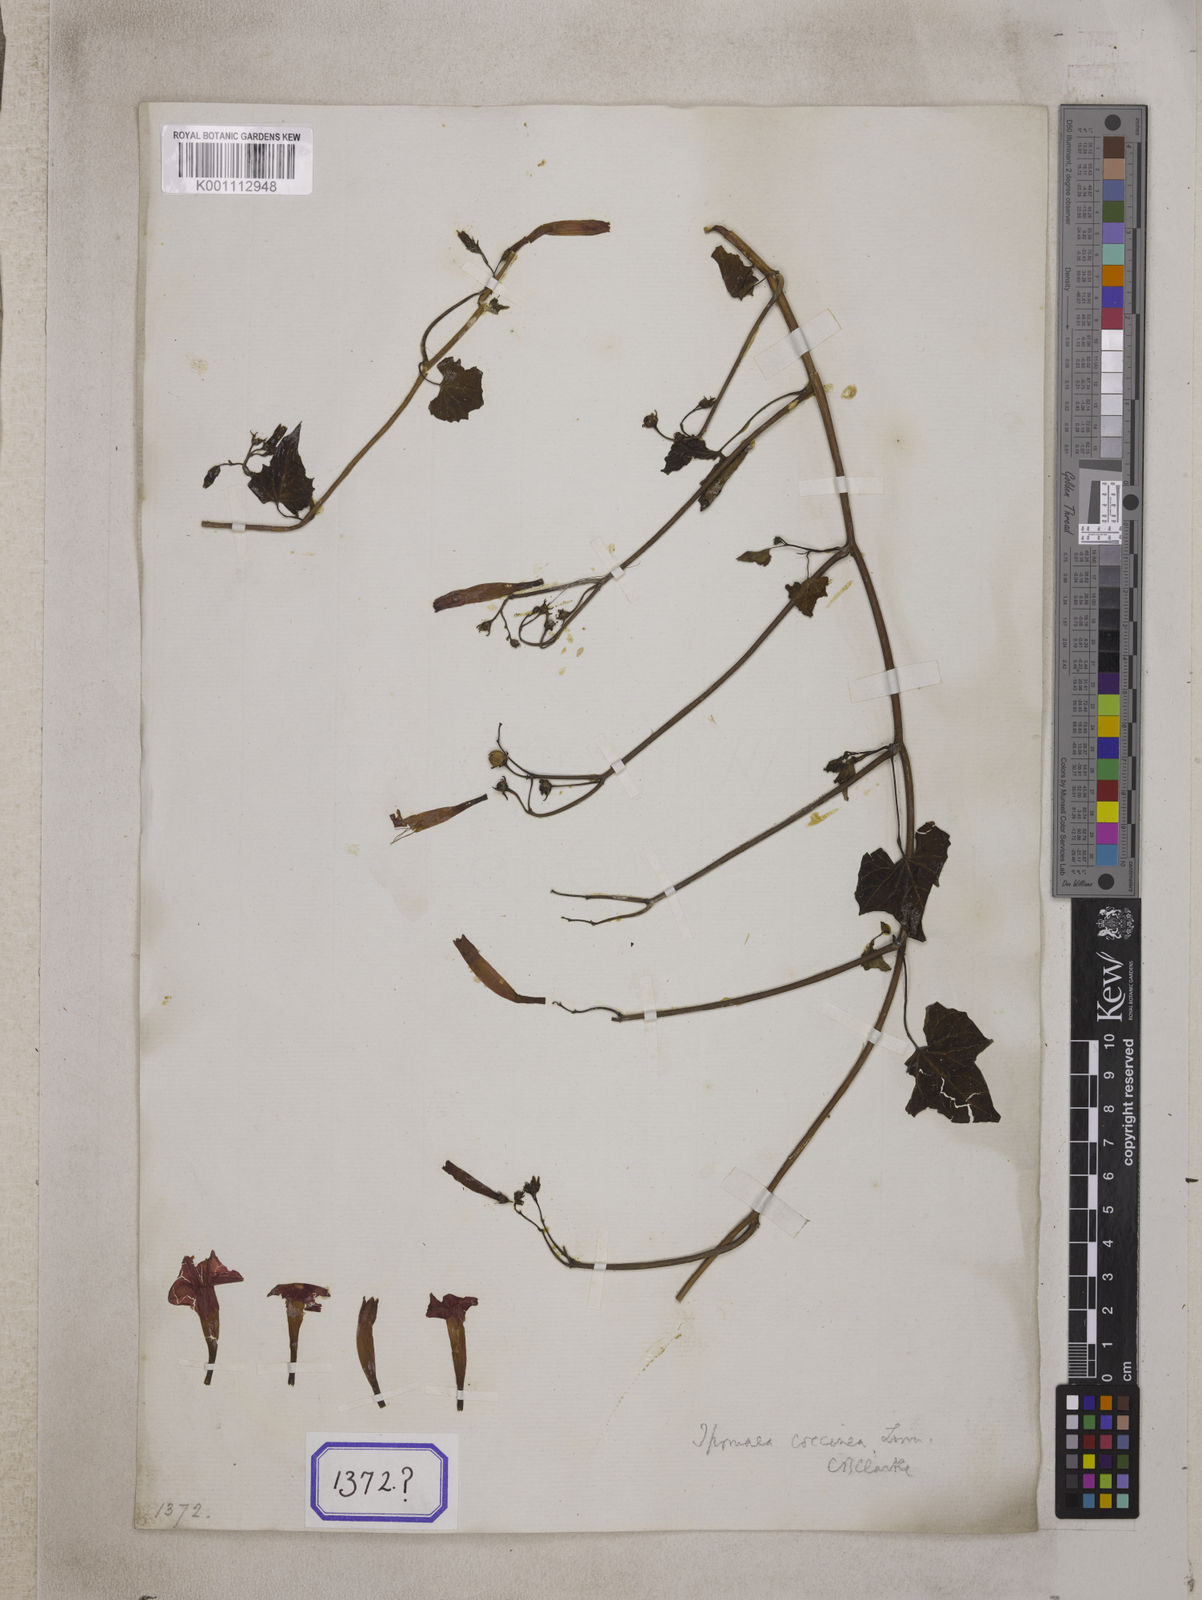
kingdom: Plantae
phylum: Tracheophyta
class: Magnoliopsida
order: Solanales
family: Convolvulaceae
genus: Convolvulus
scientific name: Convolvulus
